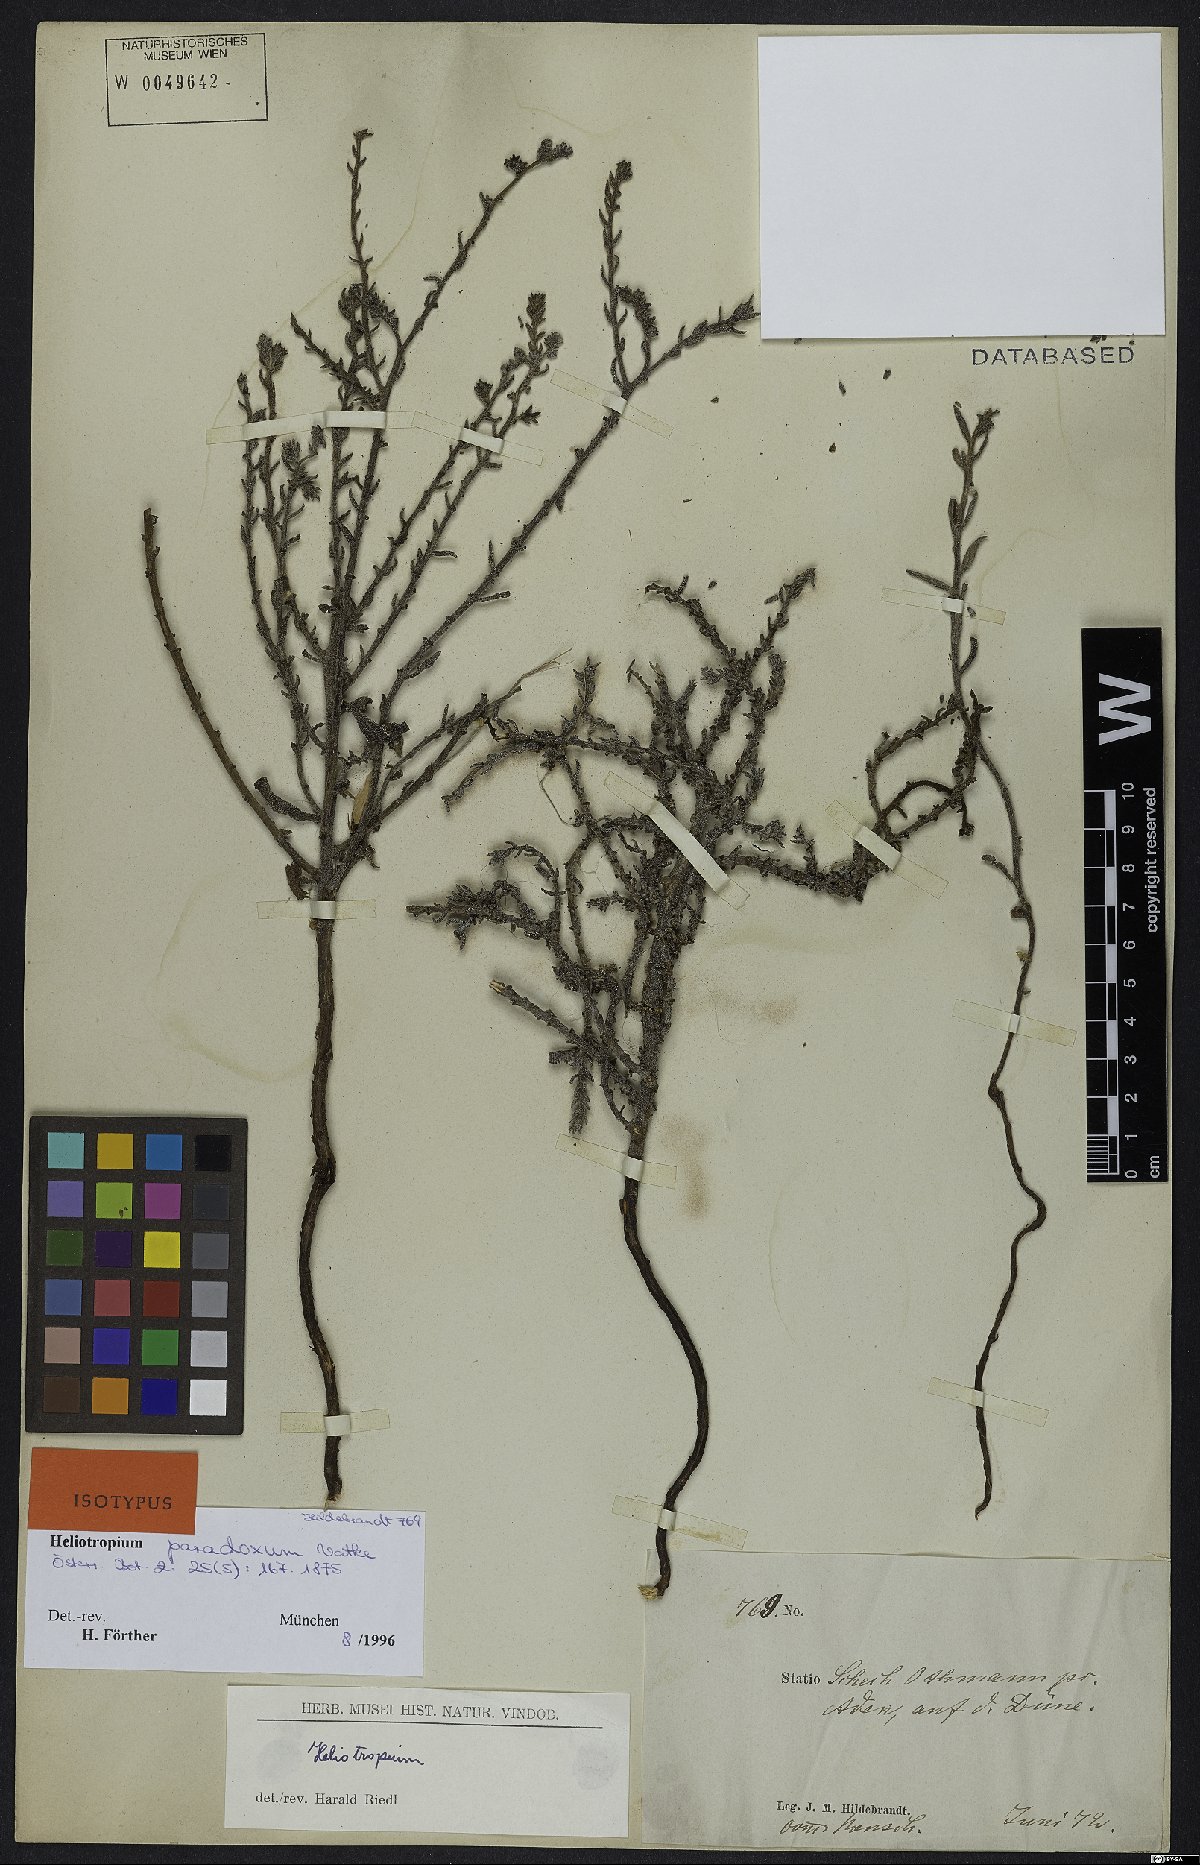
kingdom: Plantae
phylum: Tracheophyta
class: Magnoliopsida
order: Boraginales
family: Heliotropiaceae
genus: Heliotropium
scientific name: Heliotropium bacciferum
